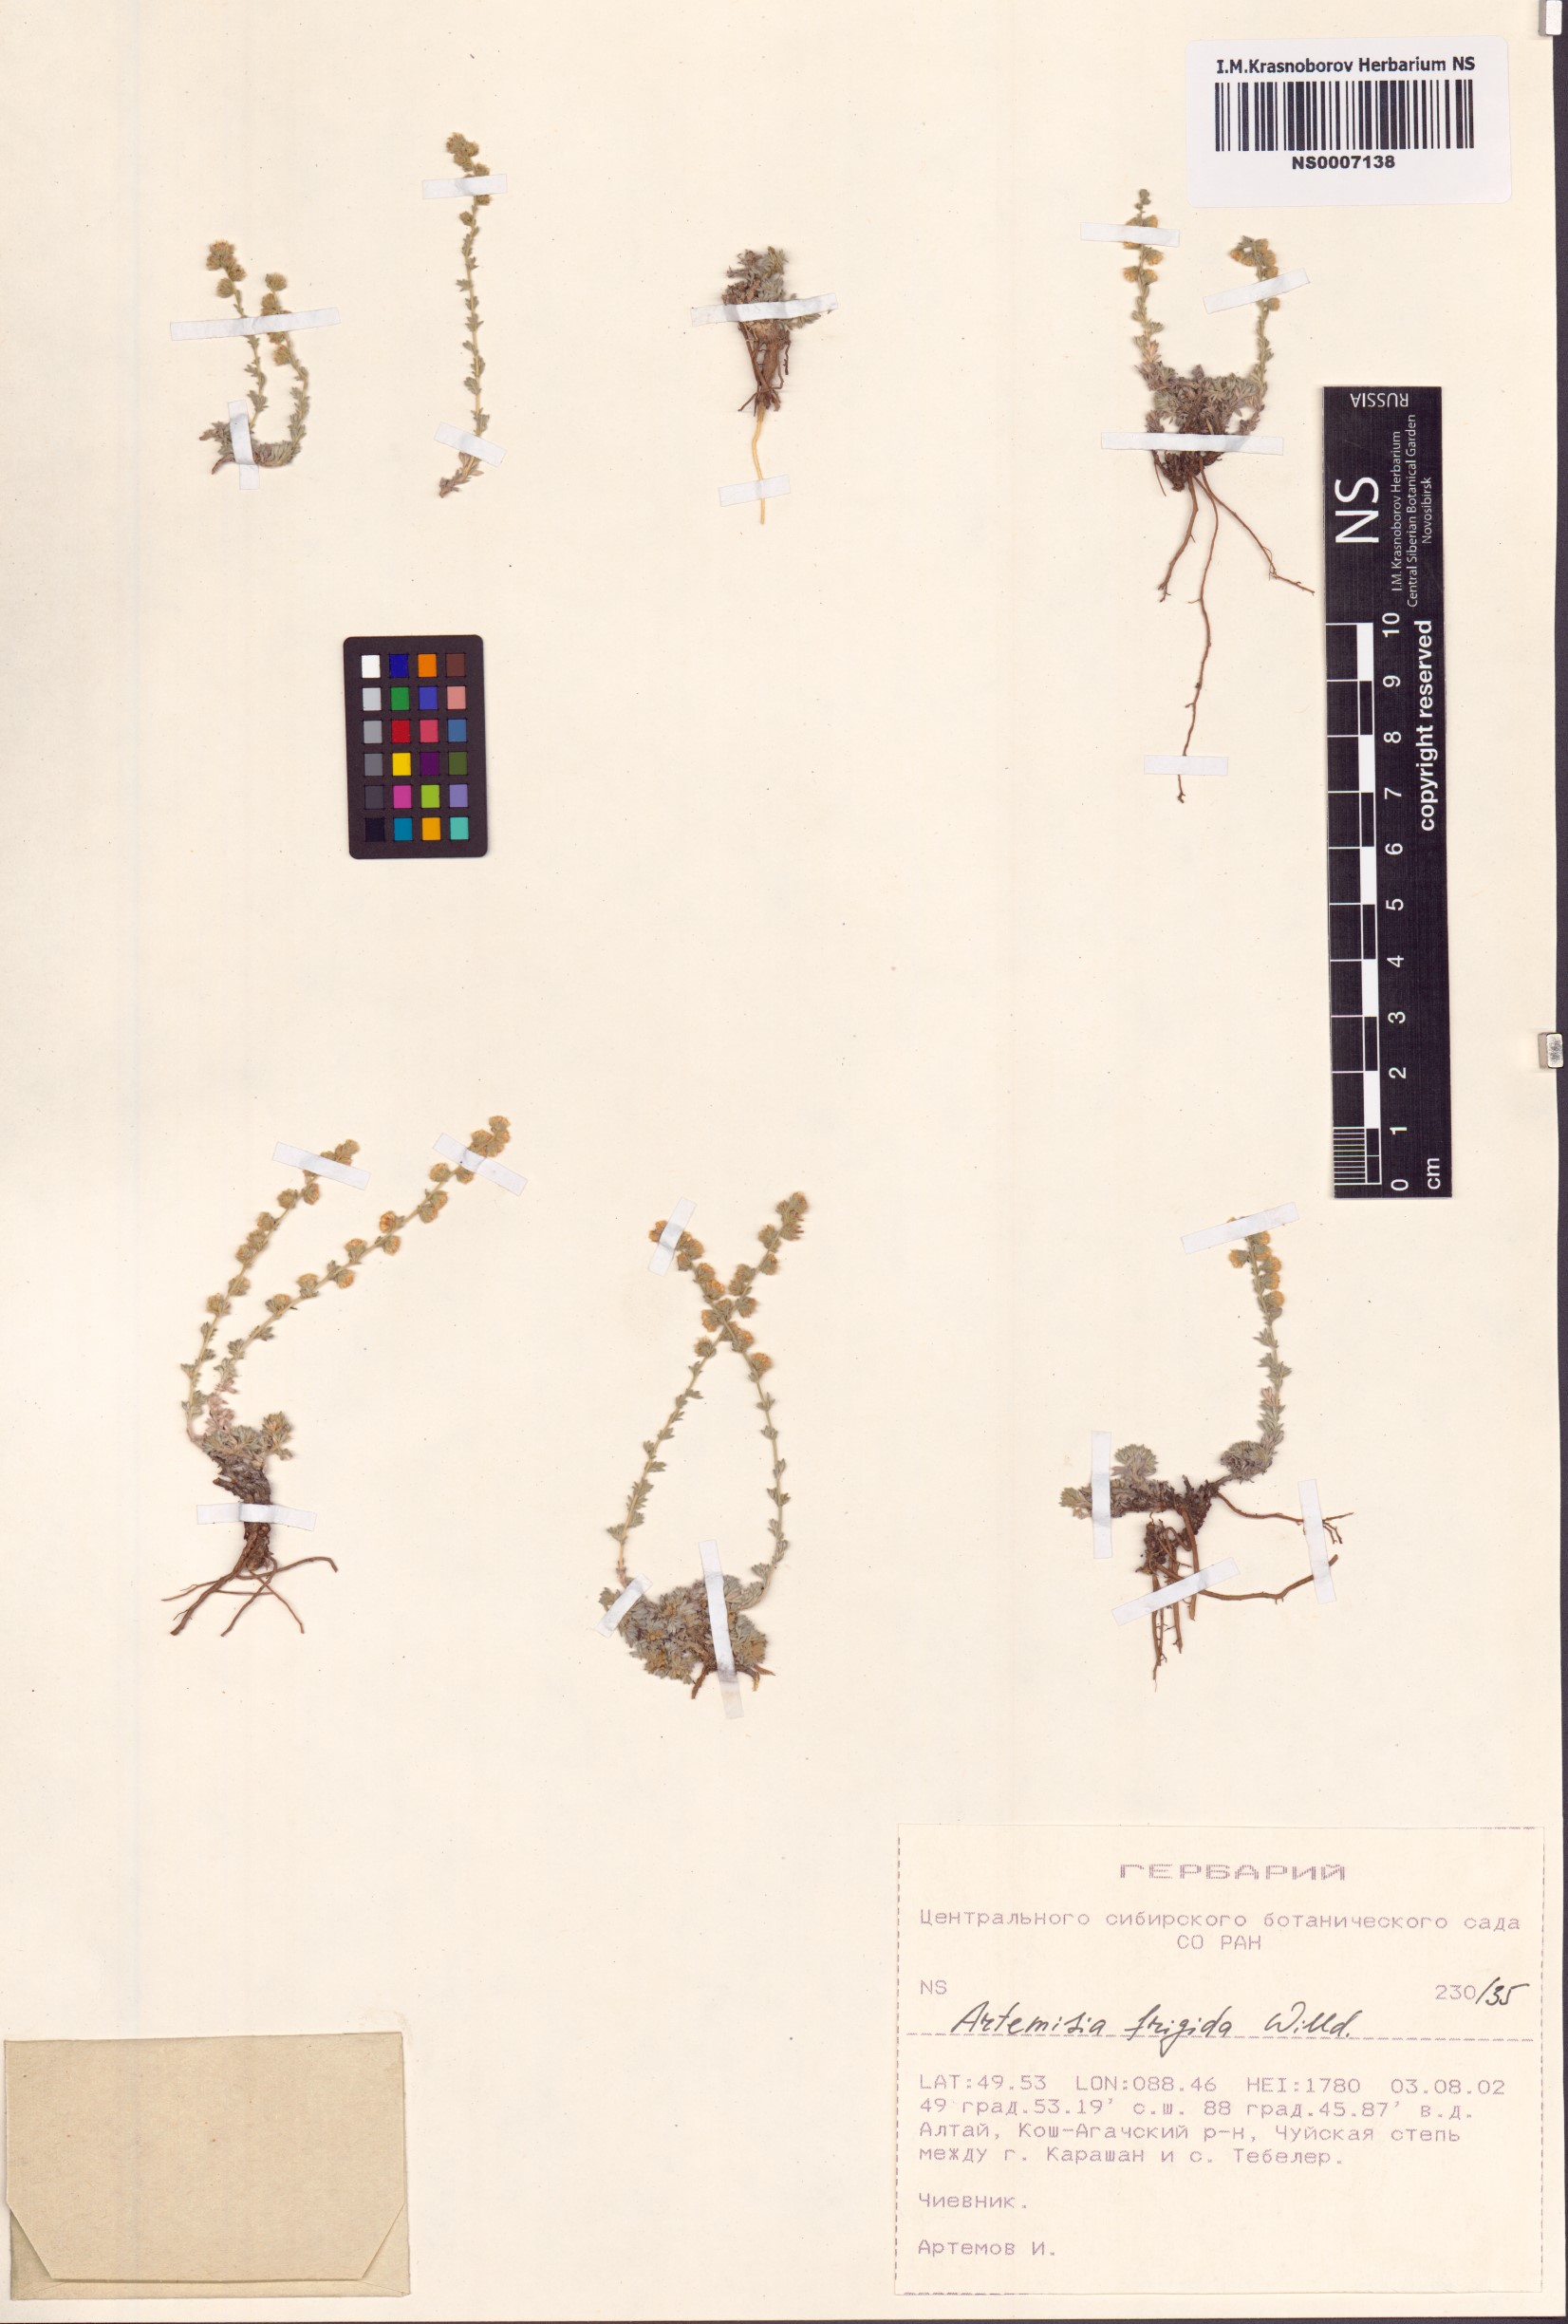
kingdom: Plantae
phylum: Tracheophyta
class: Magnoliopsida
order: Asterales
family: Asteraceae
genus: Artemisia
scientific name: Artemisia frigida
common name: Prairie sagewort
